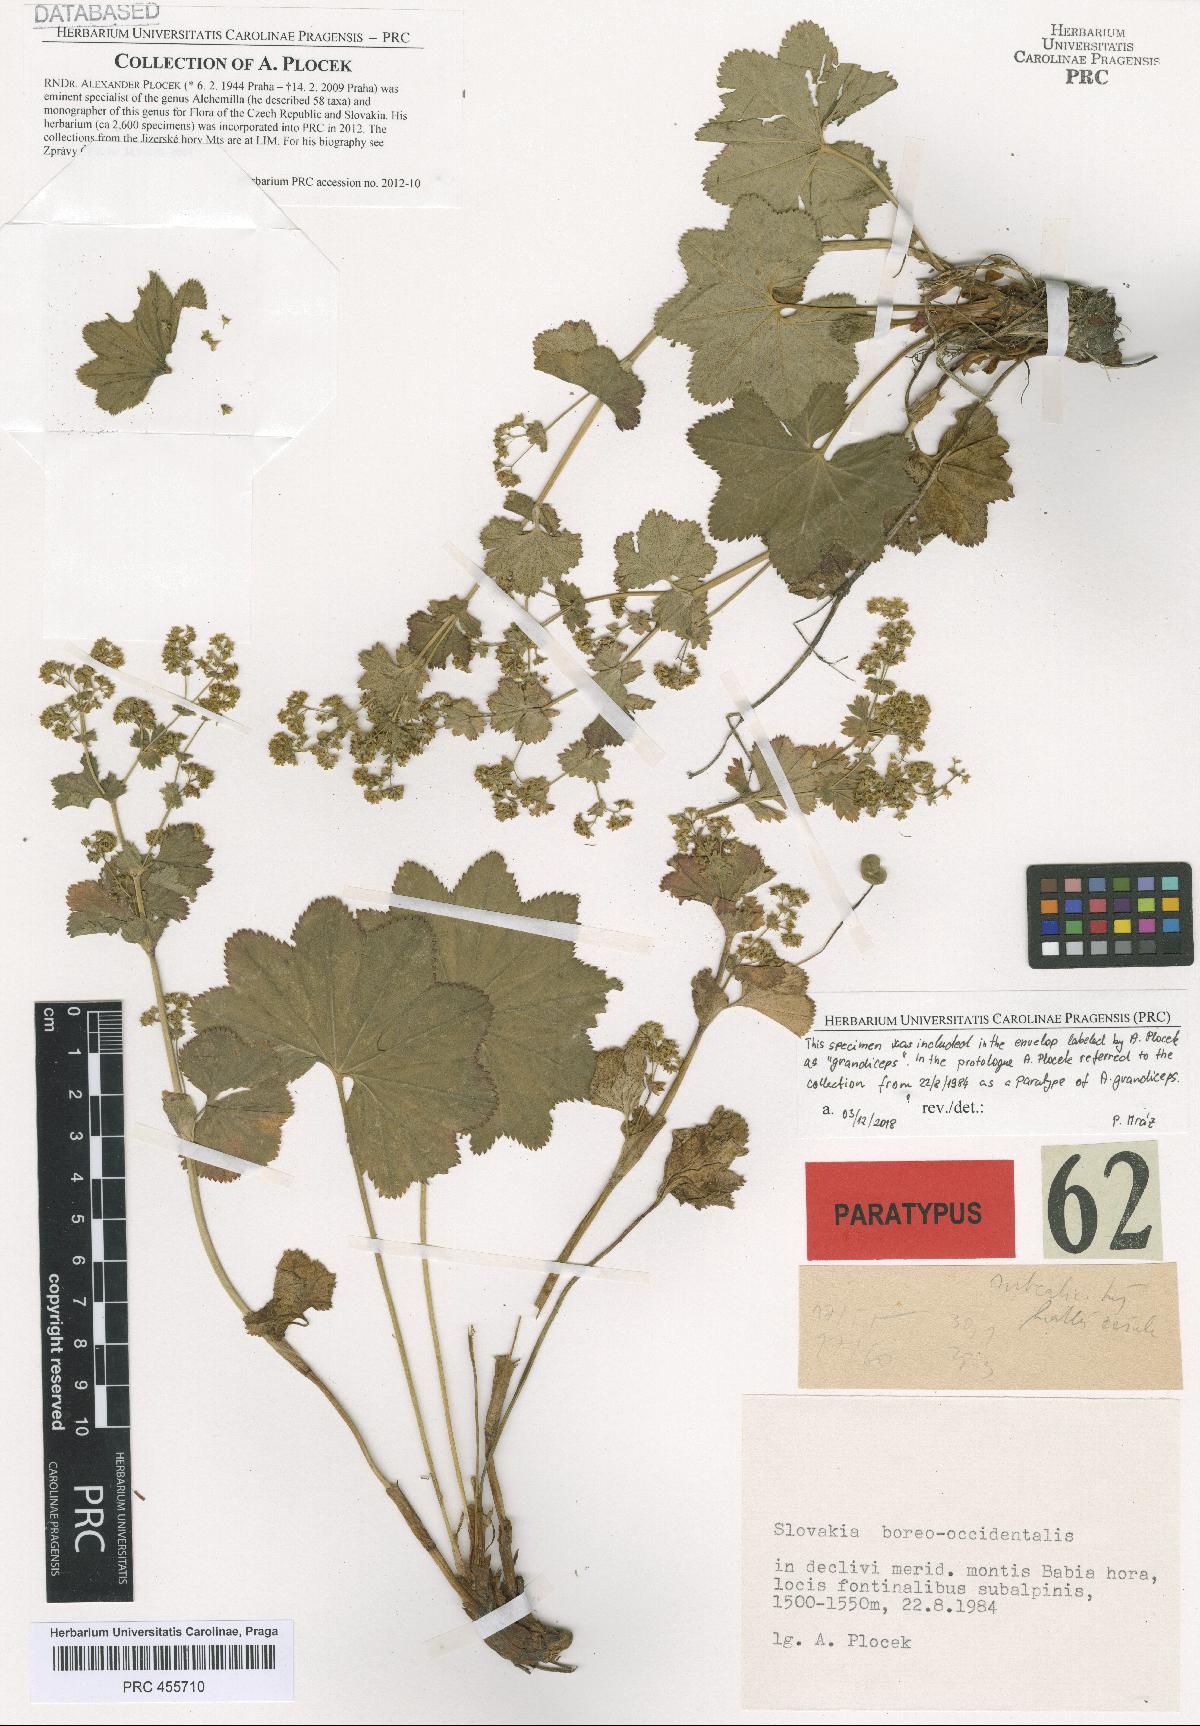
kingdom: Plantae
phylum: Tracheophyta
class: Magnoliopsida
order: Rosales
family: Rosaceae
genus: Alchemilla
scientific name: Alchemilla grandiceps
